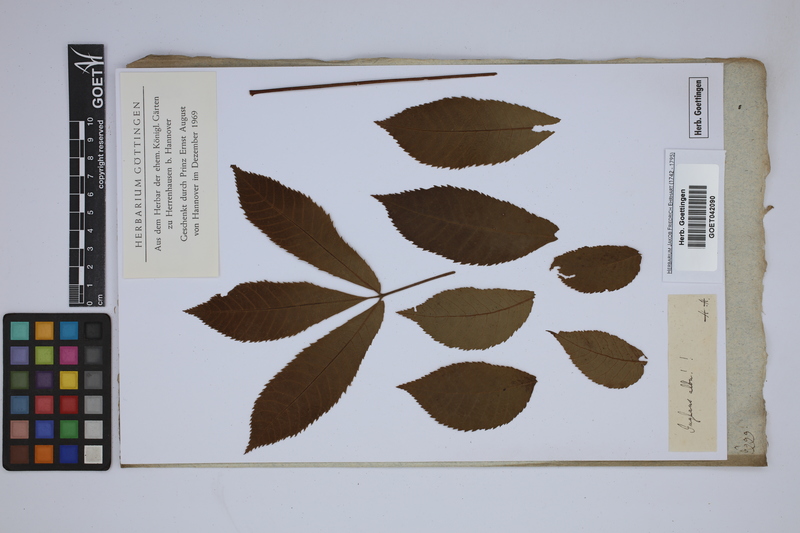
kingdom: Plantae
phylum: Tracheophyta
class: Magnoliopsida
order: Fagales
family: Juglandaceae
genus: Carya
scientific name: Carya alba
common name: Mockernut hickory
